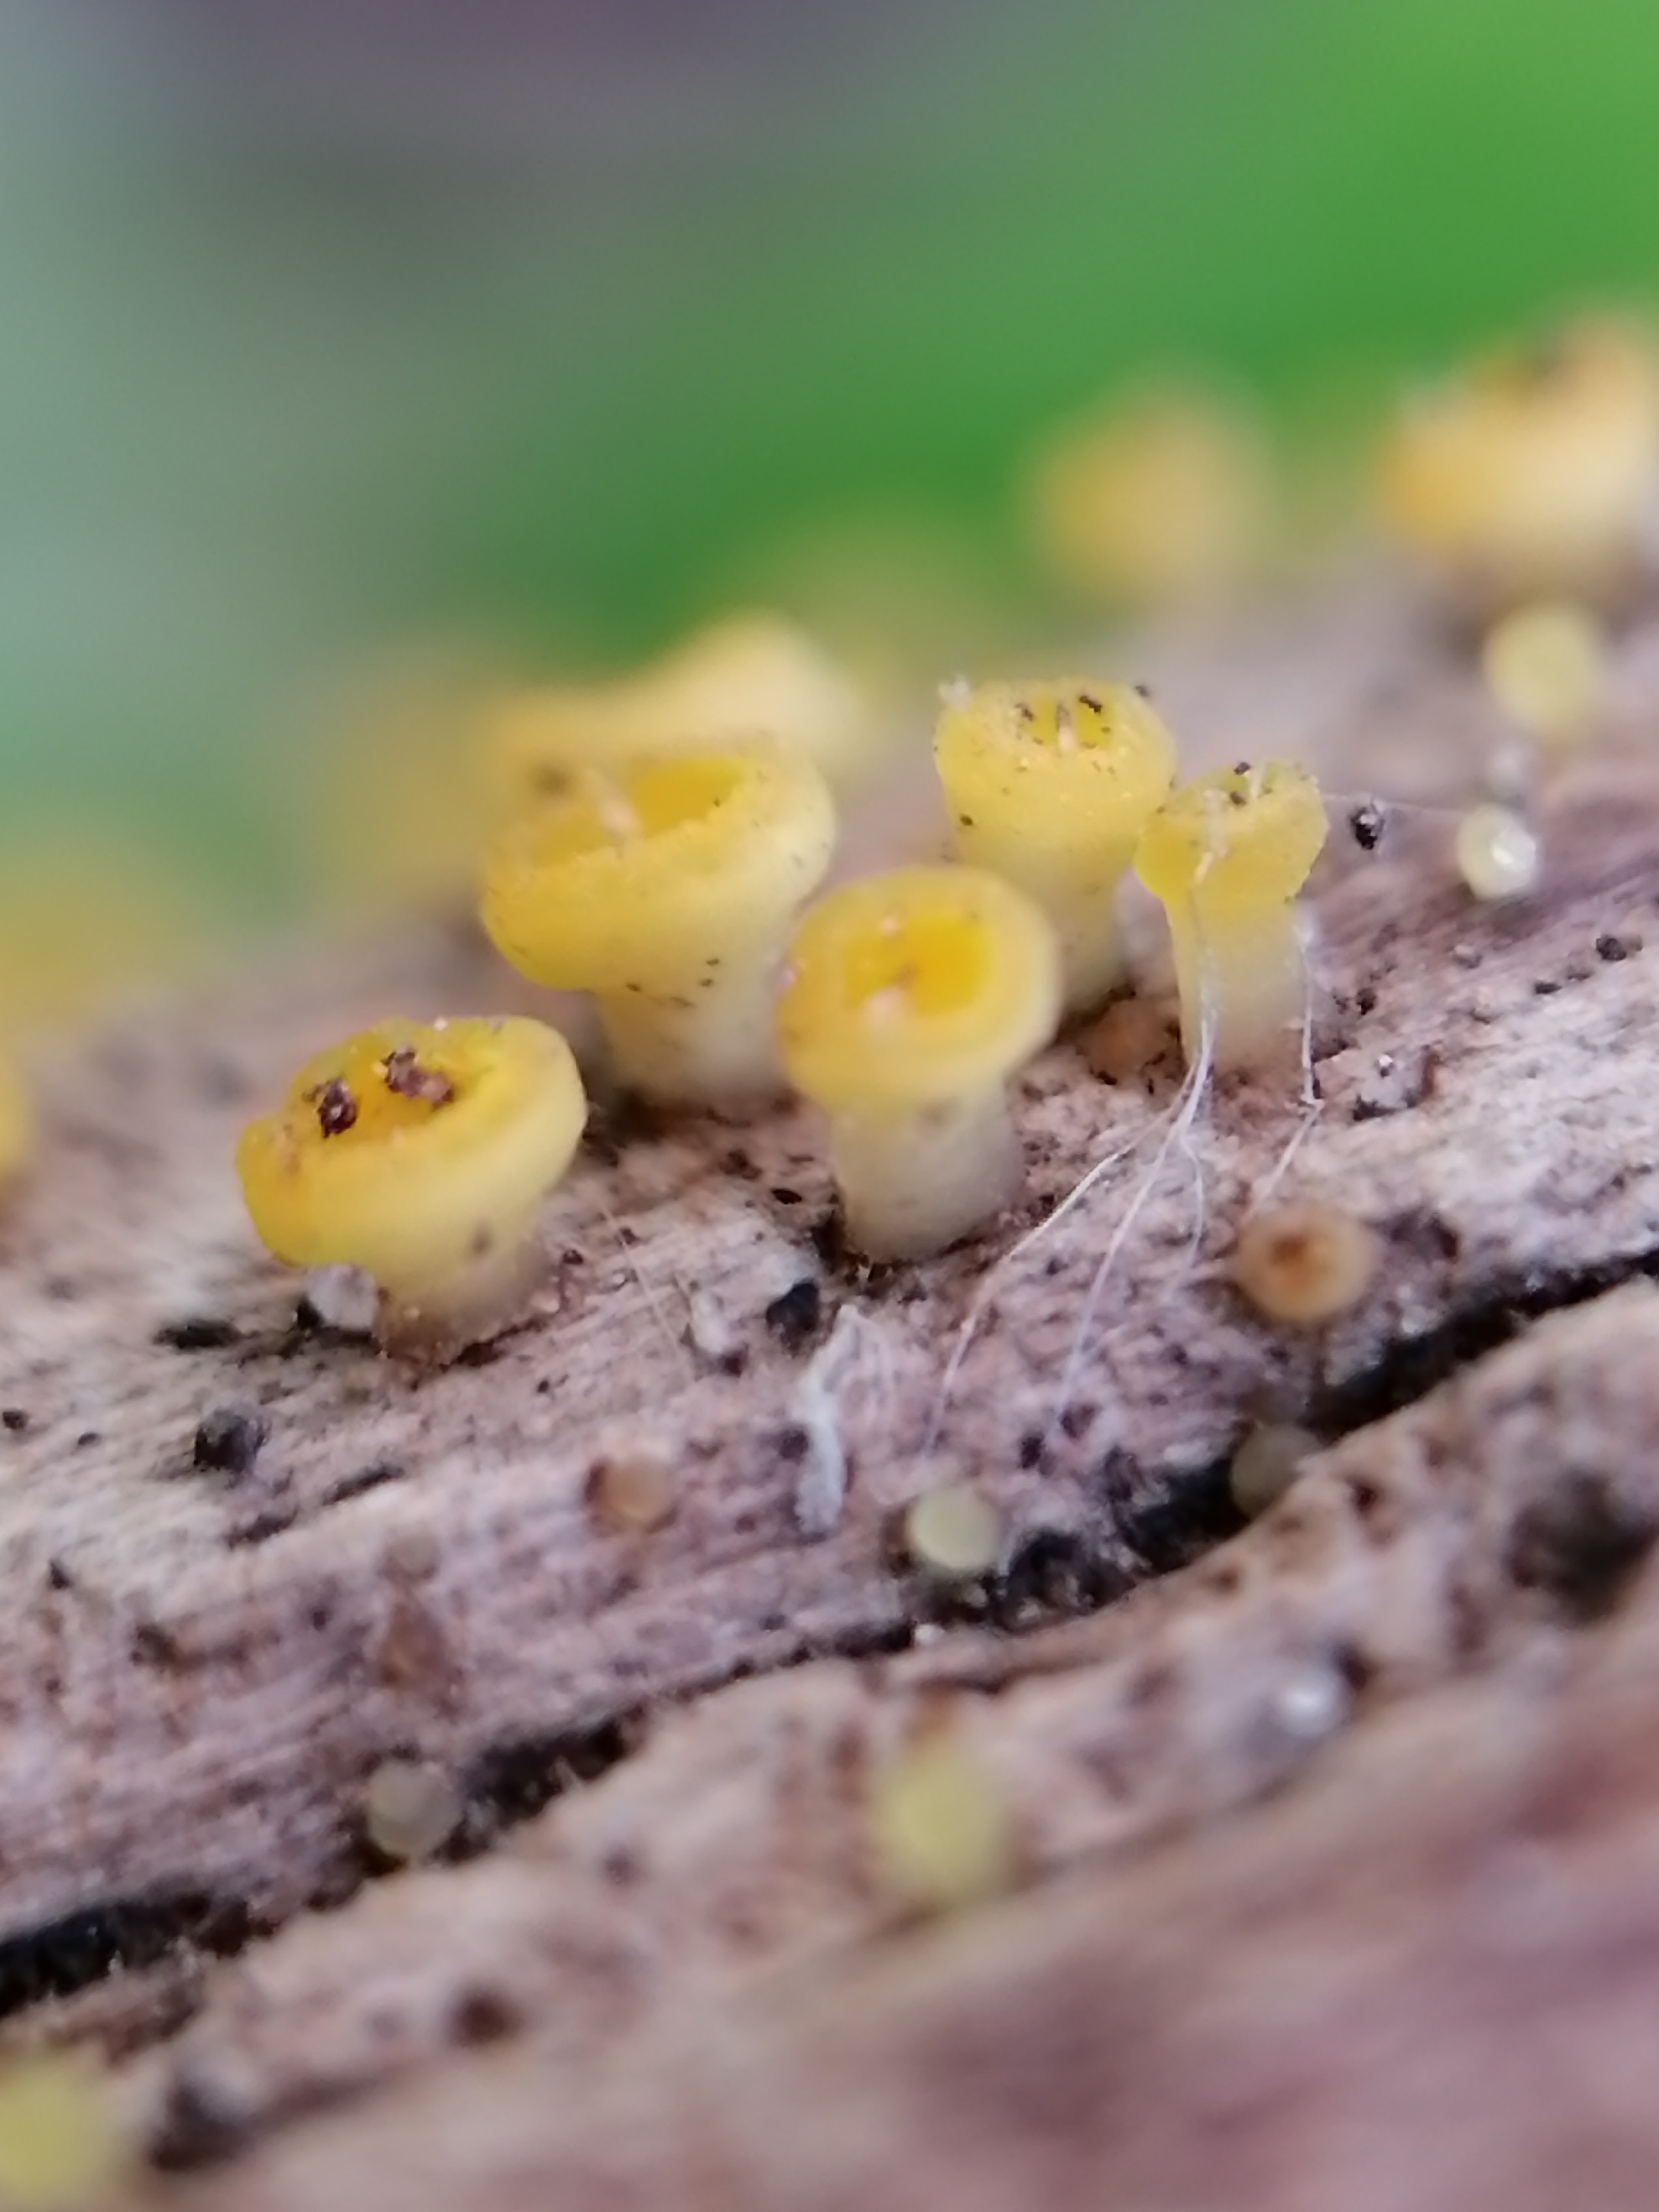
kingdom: Fungi
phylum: Ascomycota
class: Leotiomycetes
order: Helotiales
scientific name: Helotiales
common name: stilkskiveordenen
